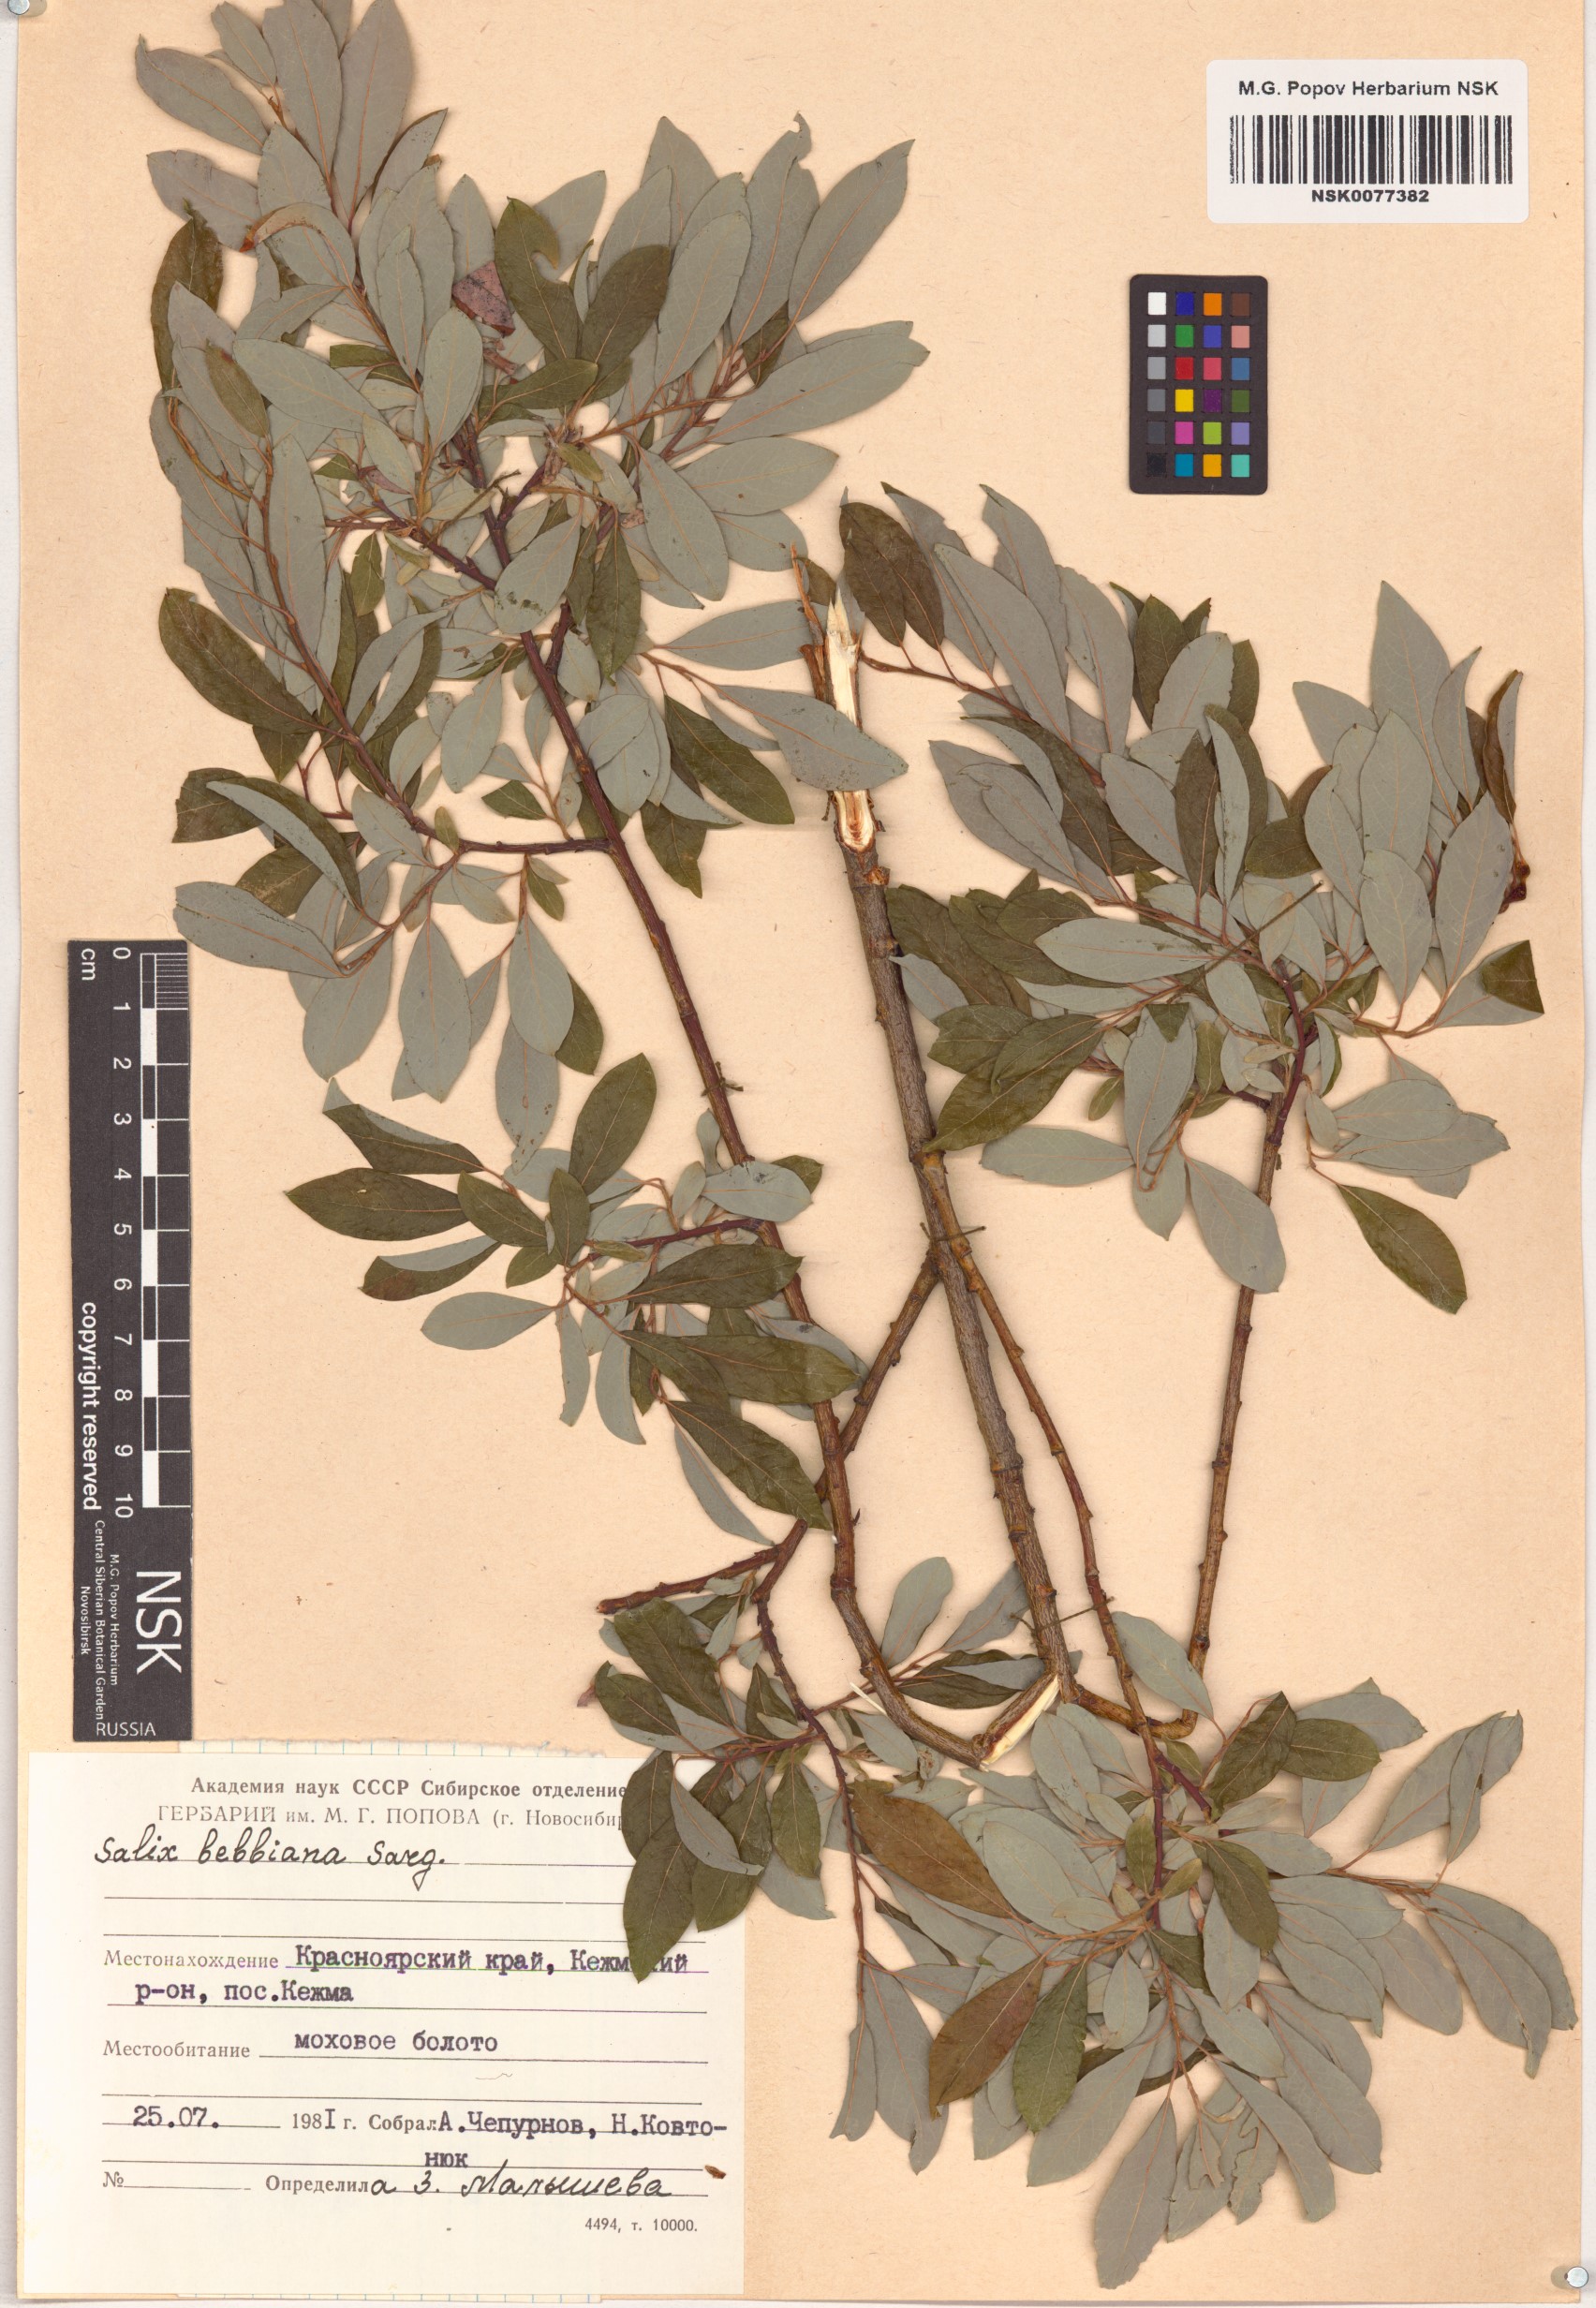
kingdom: Plantae
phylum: Tracheophyta
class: Magnoliopsida
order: Malpighiales
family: Salicaceae
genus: Salix
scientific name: Salix bebbiana
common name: Bebb's willow
